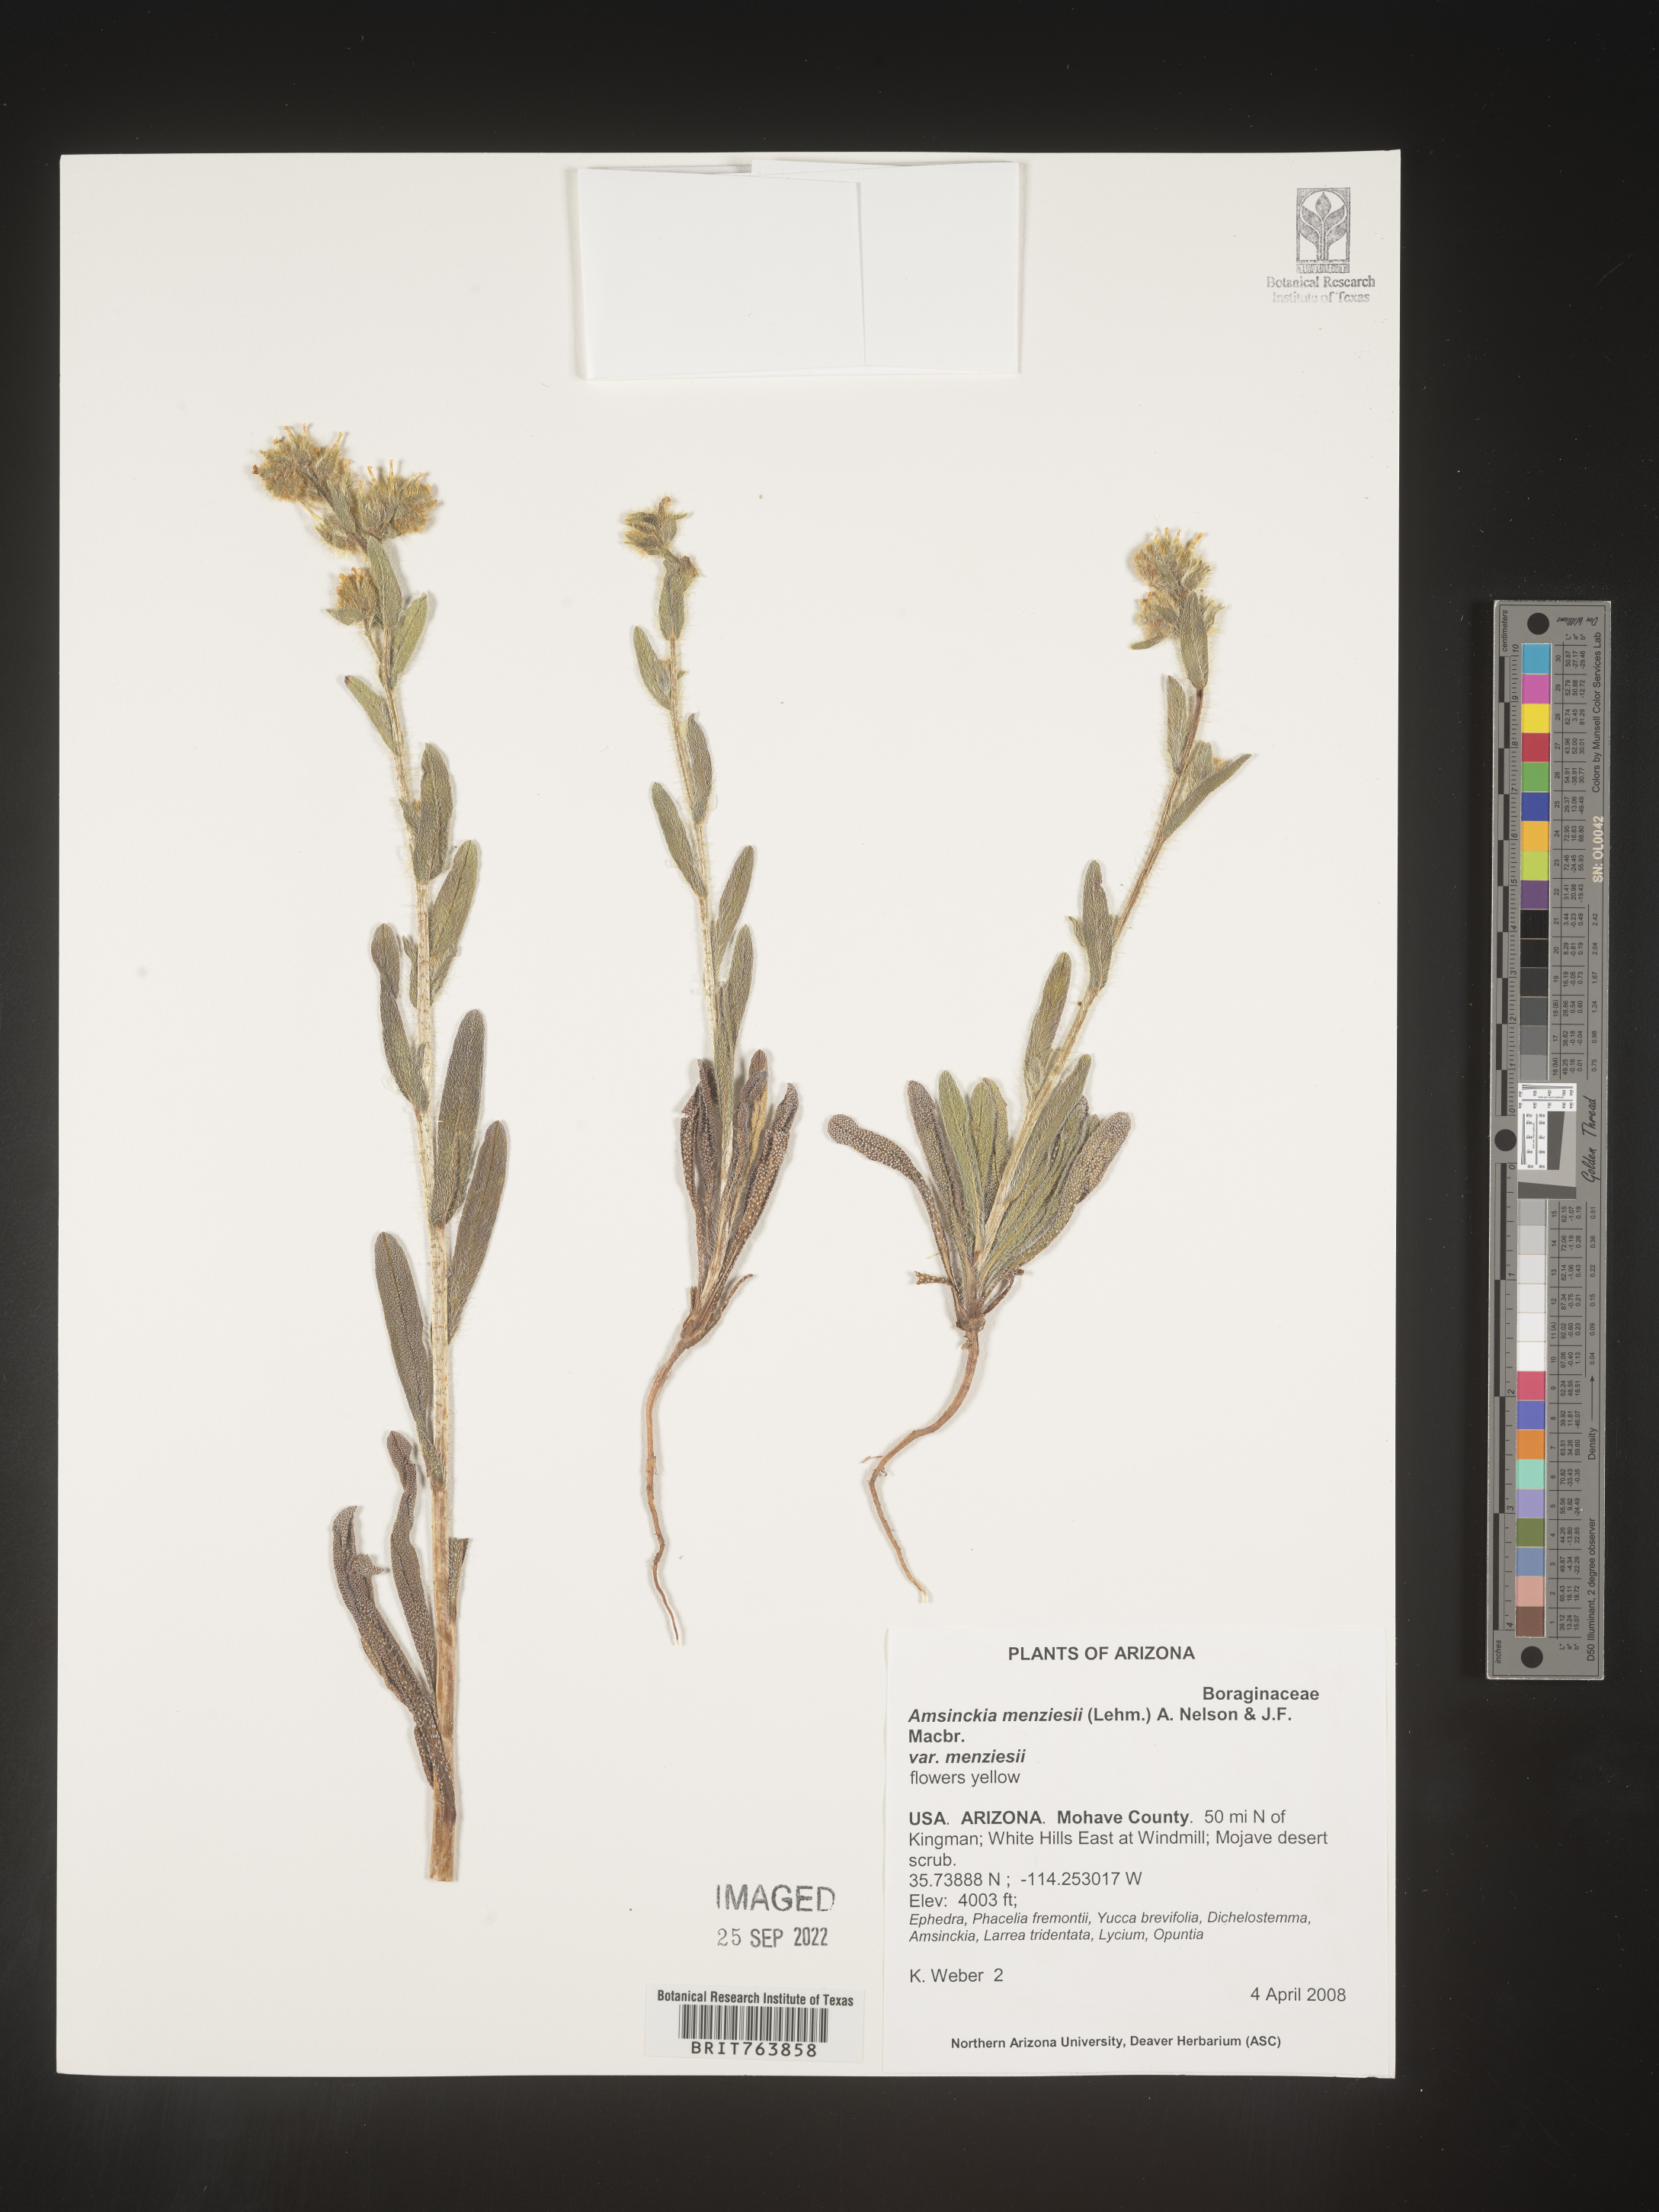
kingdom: Plantae
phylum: Tracheophyta
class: Magnoliopsida
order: Boraginales
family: Boraginaceae
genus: Amsinckia
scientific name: Amsinckia menziesii
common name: Menzies' fiddleneck
